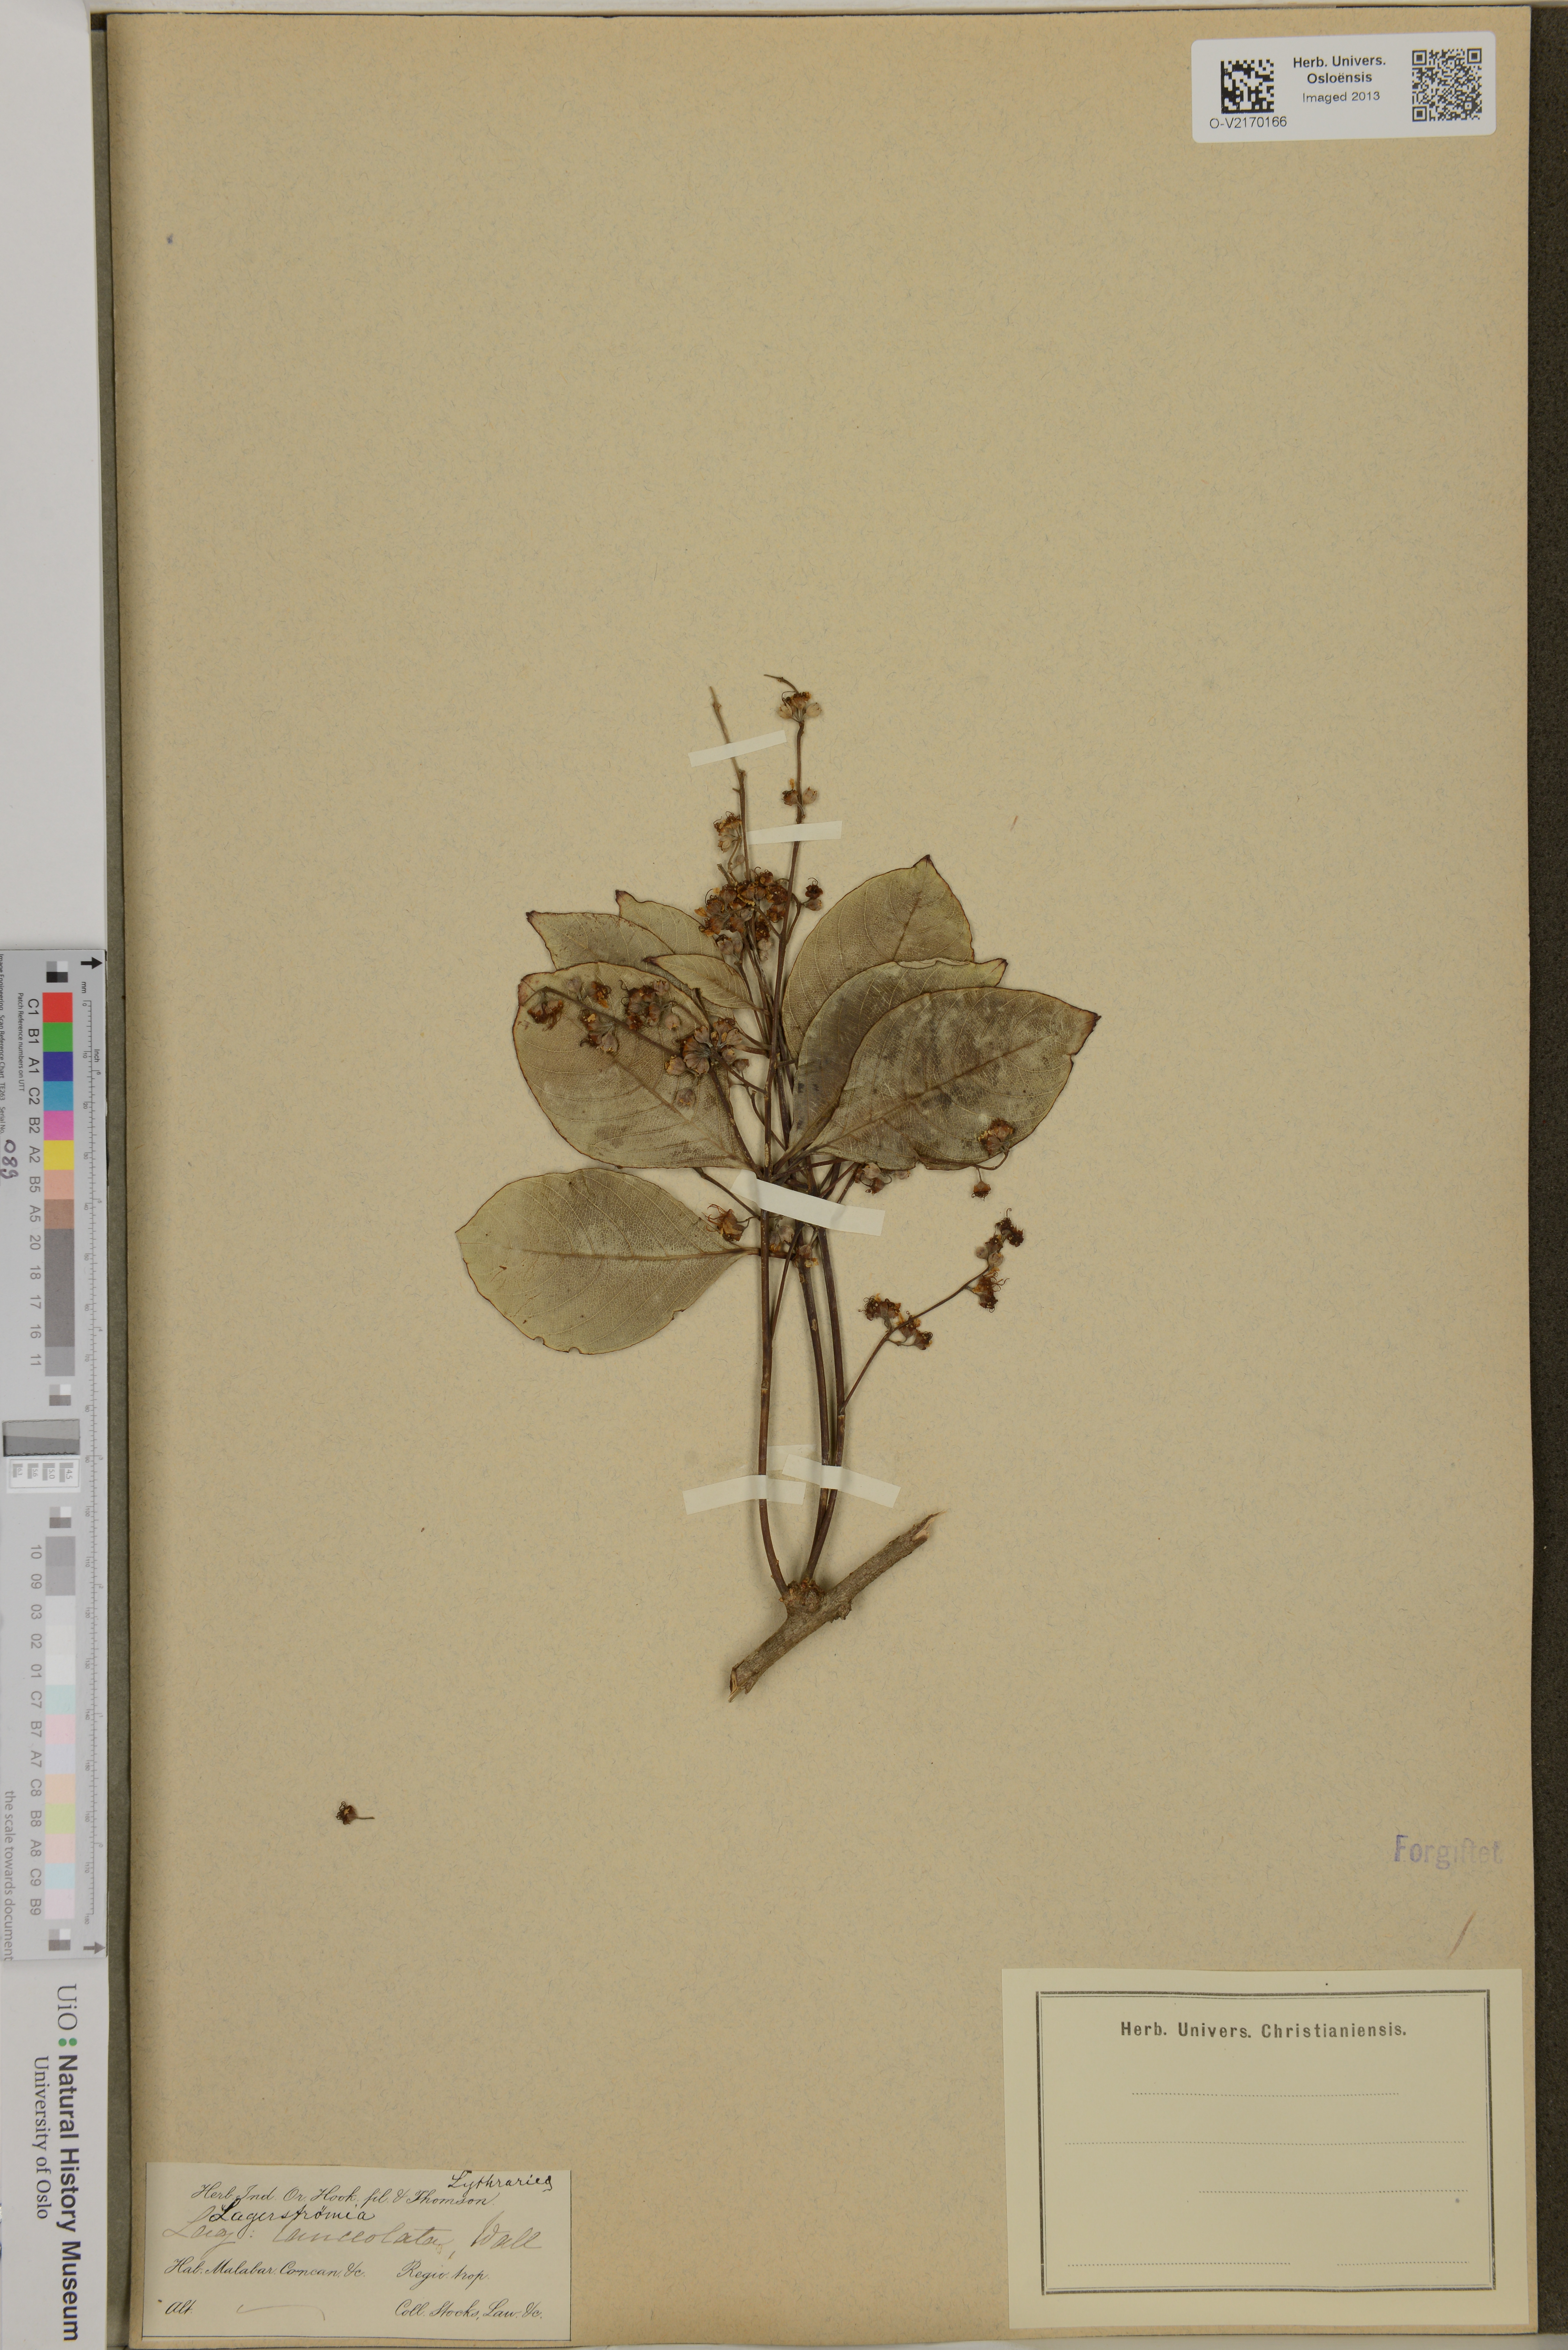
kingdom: Plantae
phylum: Tracheophyta
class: Magnoliopsida
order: Myrtales
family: Lythraceae
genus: Lagerstroemia
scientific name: Lagerstroemia
